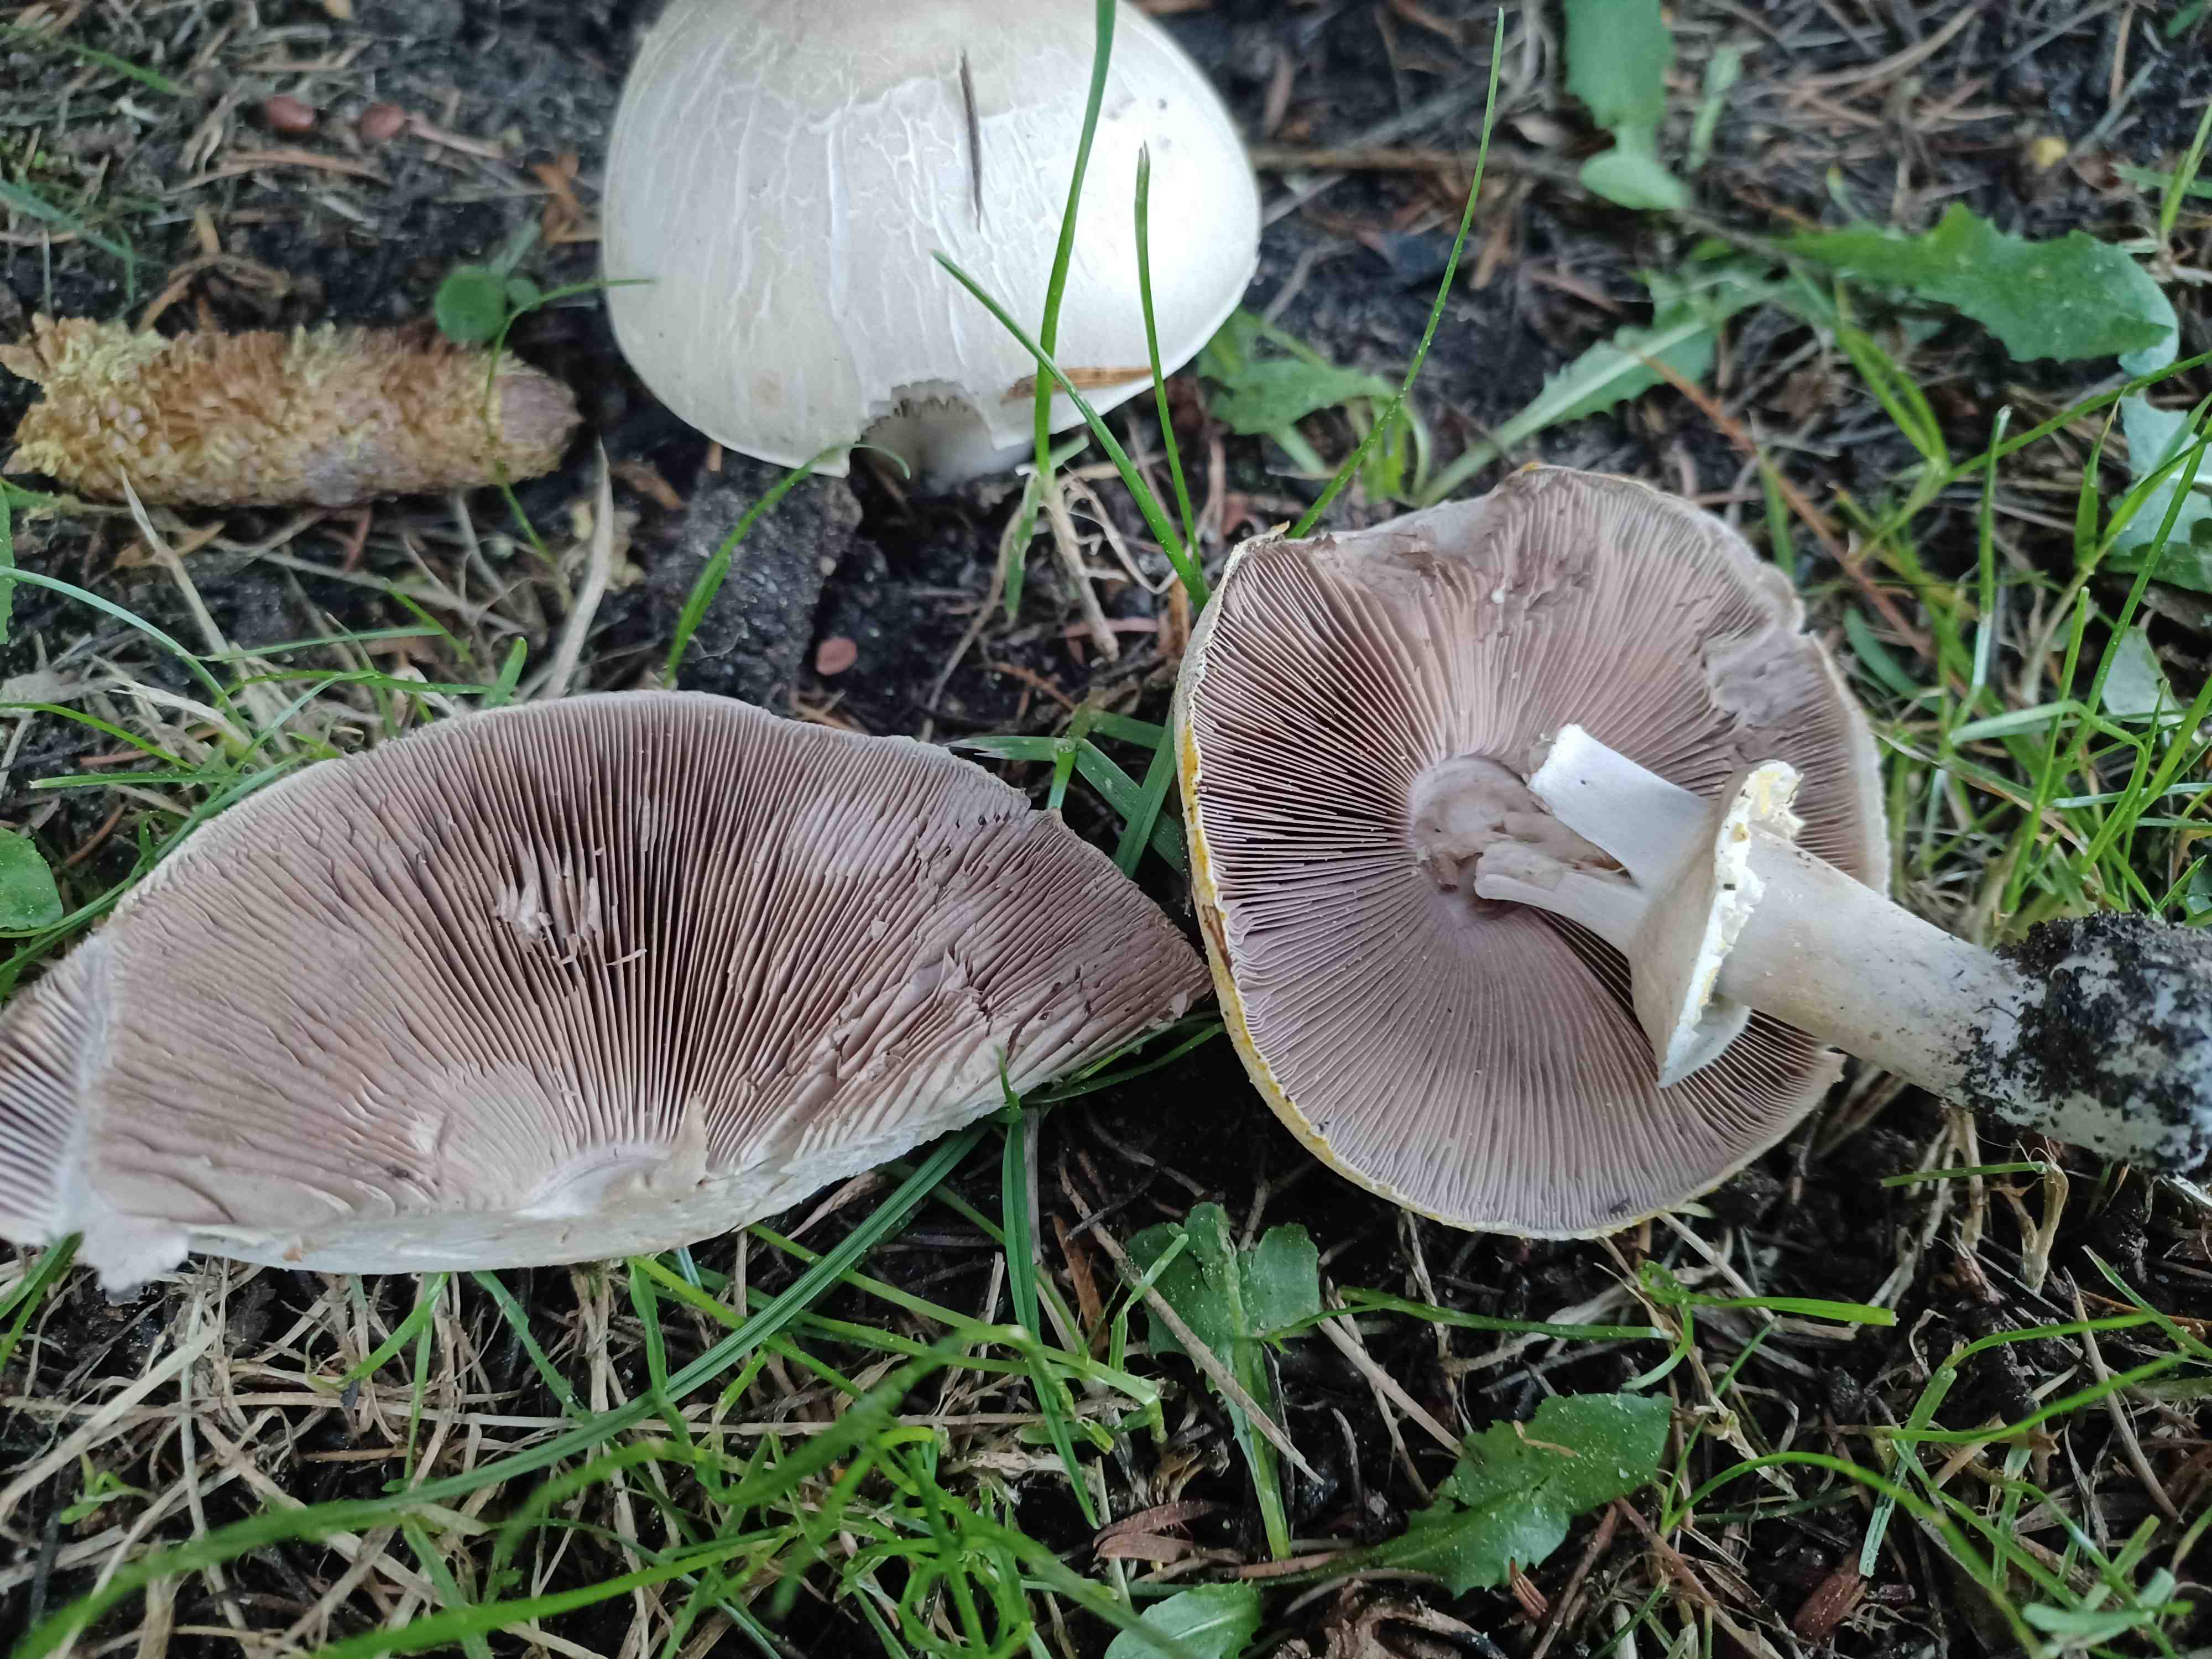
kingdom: Fungi
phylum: Basidiomycota
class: Agaricomycetes
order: Agaricales
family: Agaricaceae
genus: Agaricus
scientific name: Agaricus xanthodermus
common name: karbol-champignon
